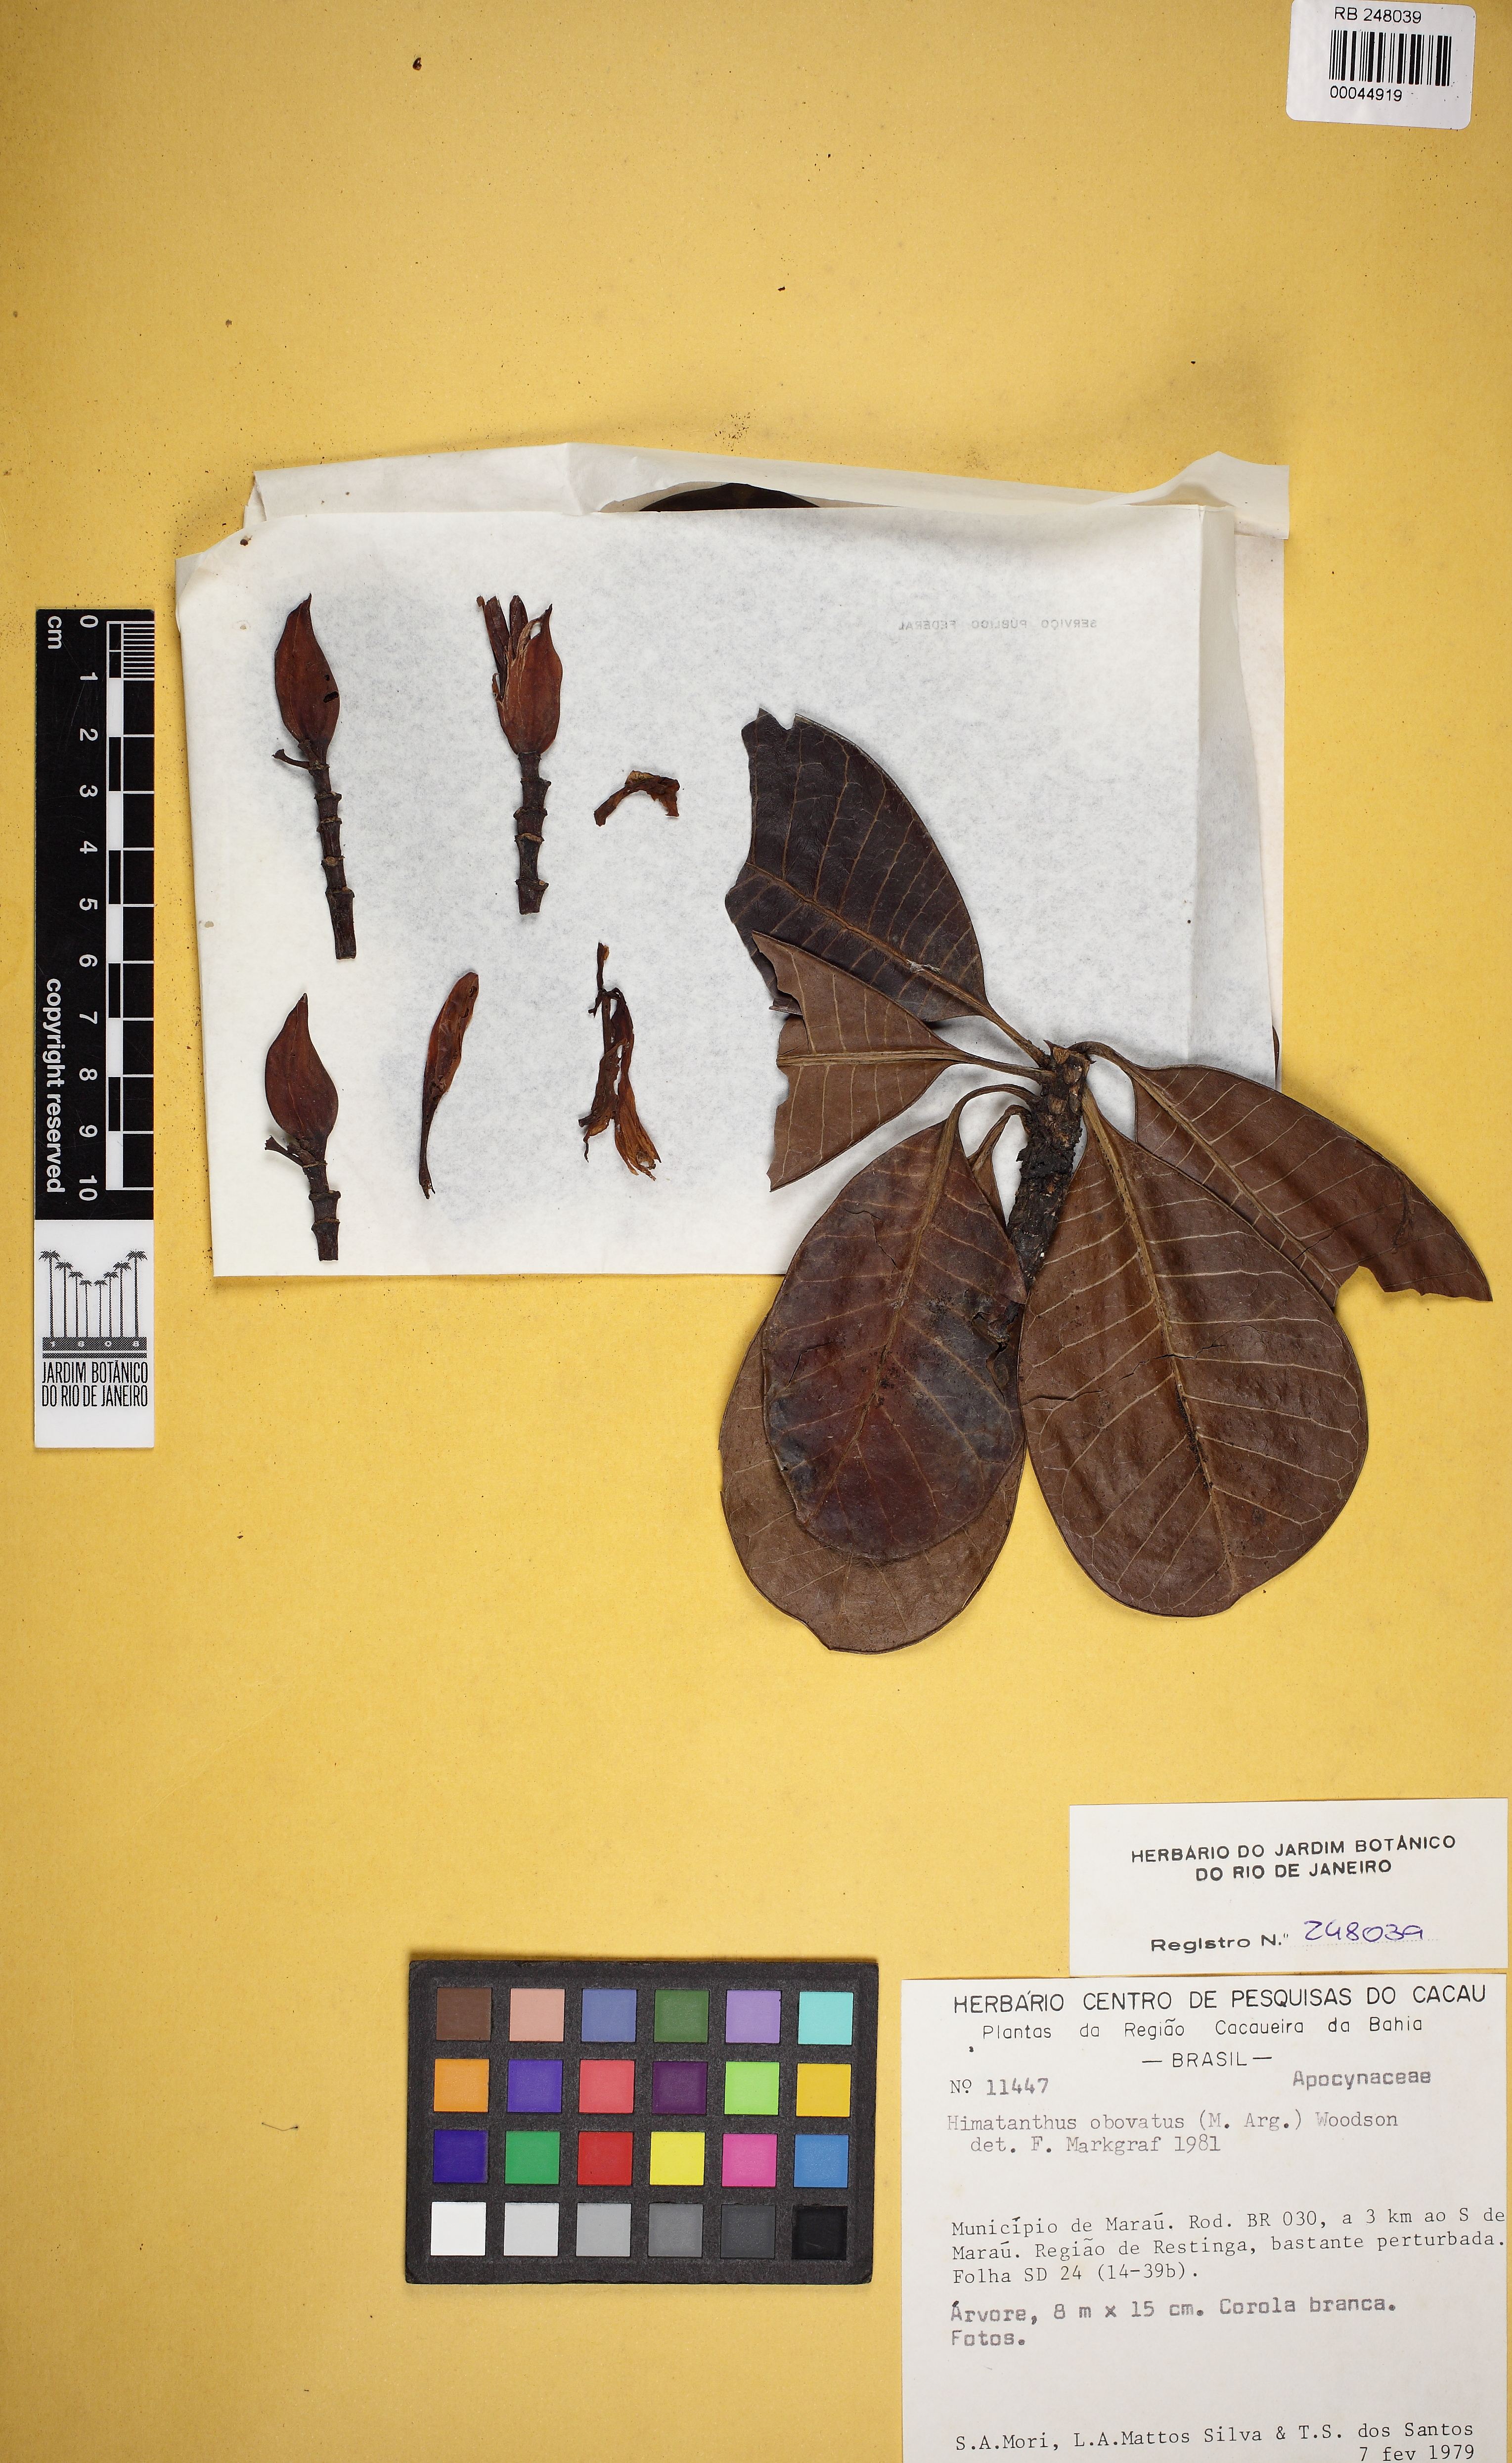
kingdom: Plantae
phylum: Tracheophyta
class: Magnoliopsida
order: Gentianales
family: Apocynaceae
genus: Himatanthus
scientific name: Himatanthus obovatus
